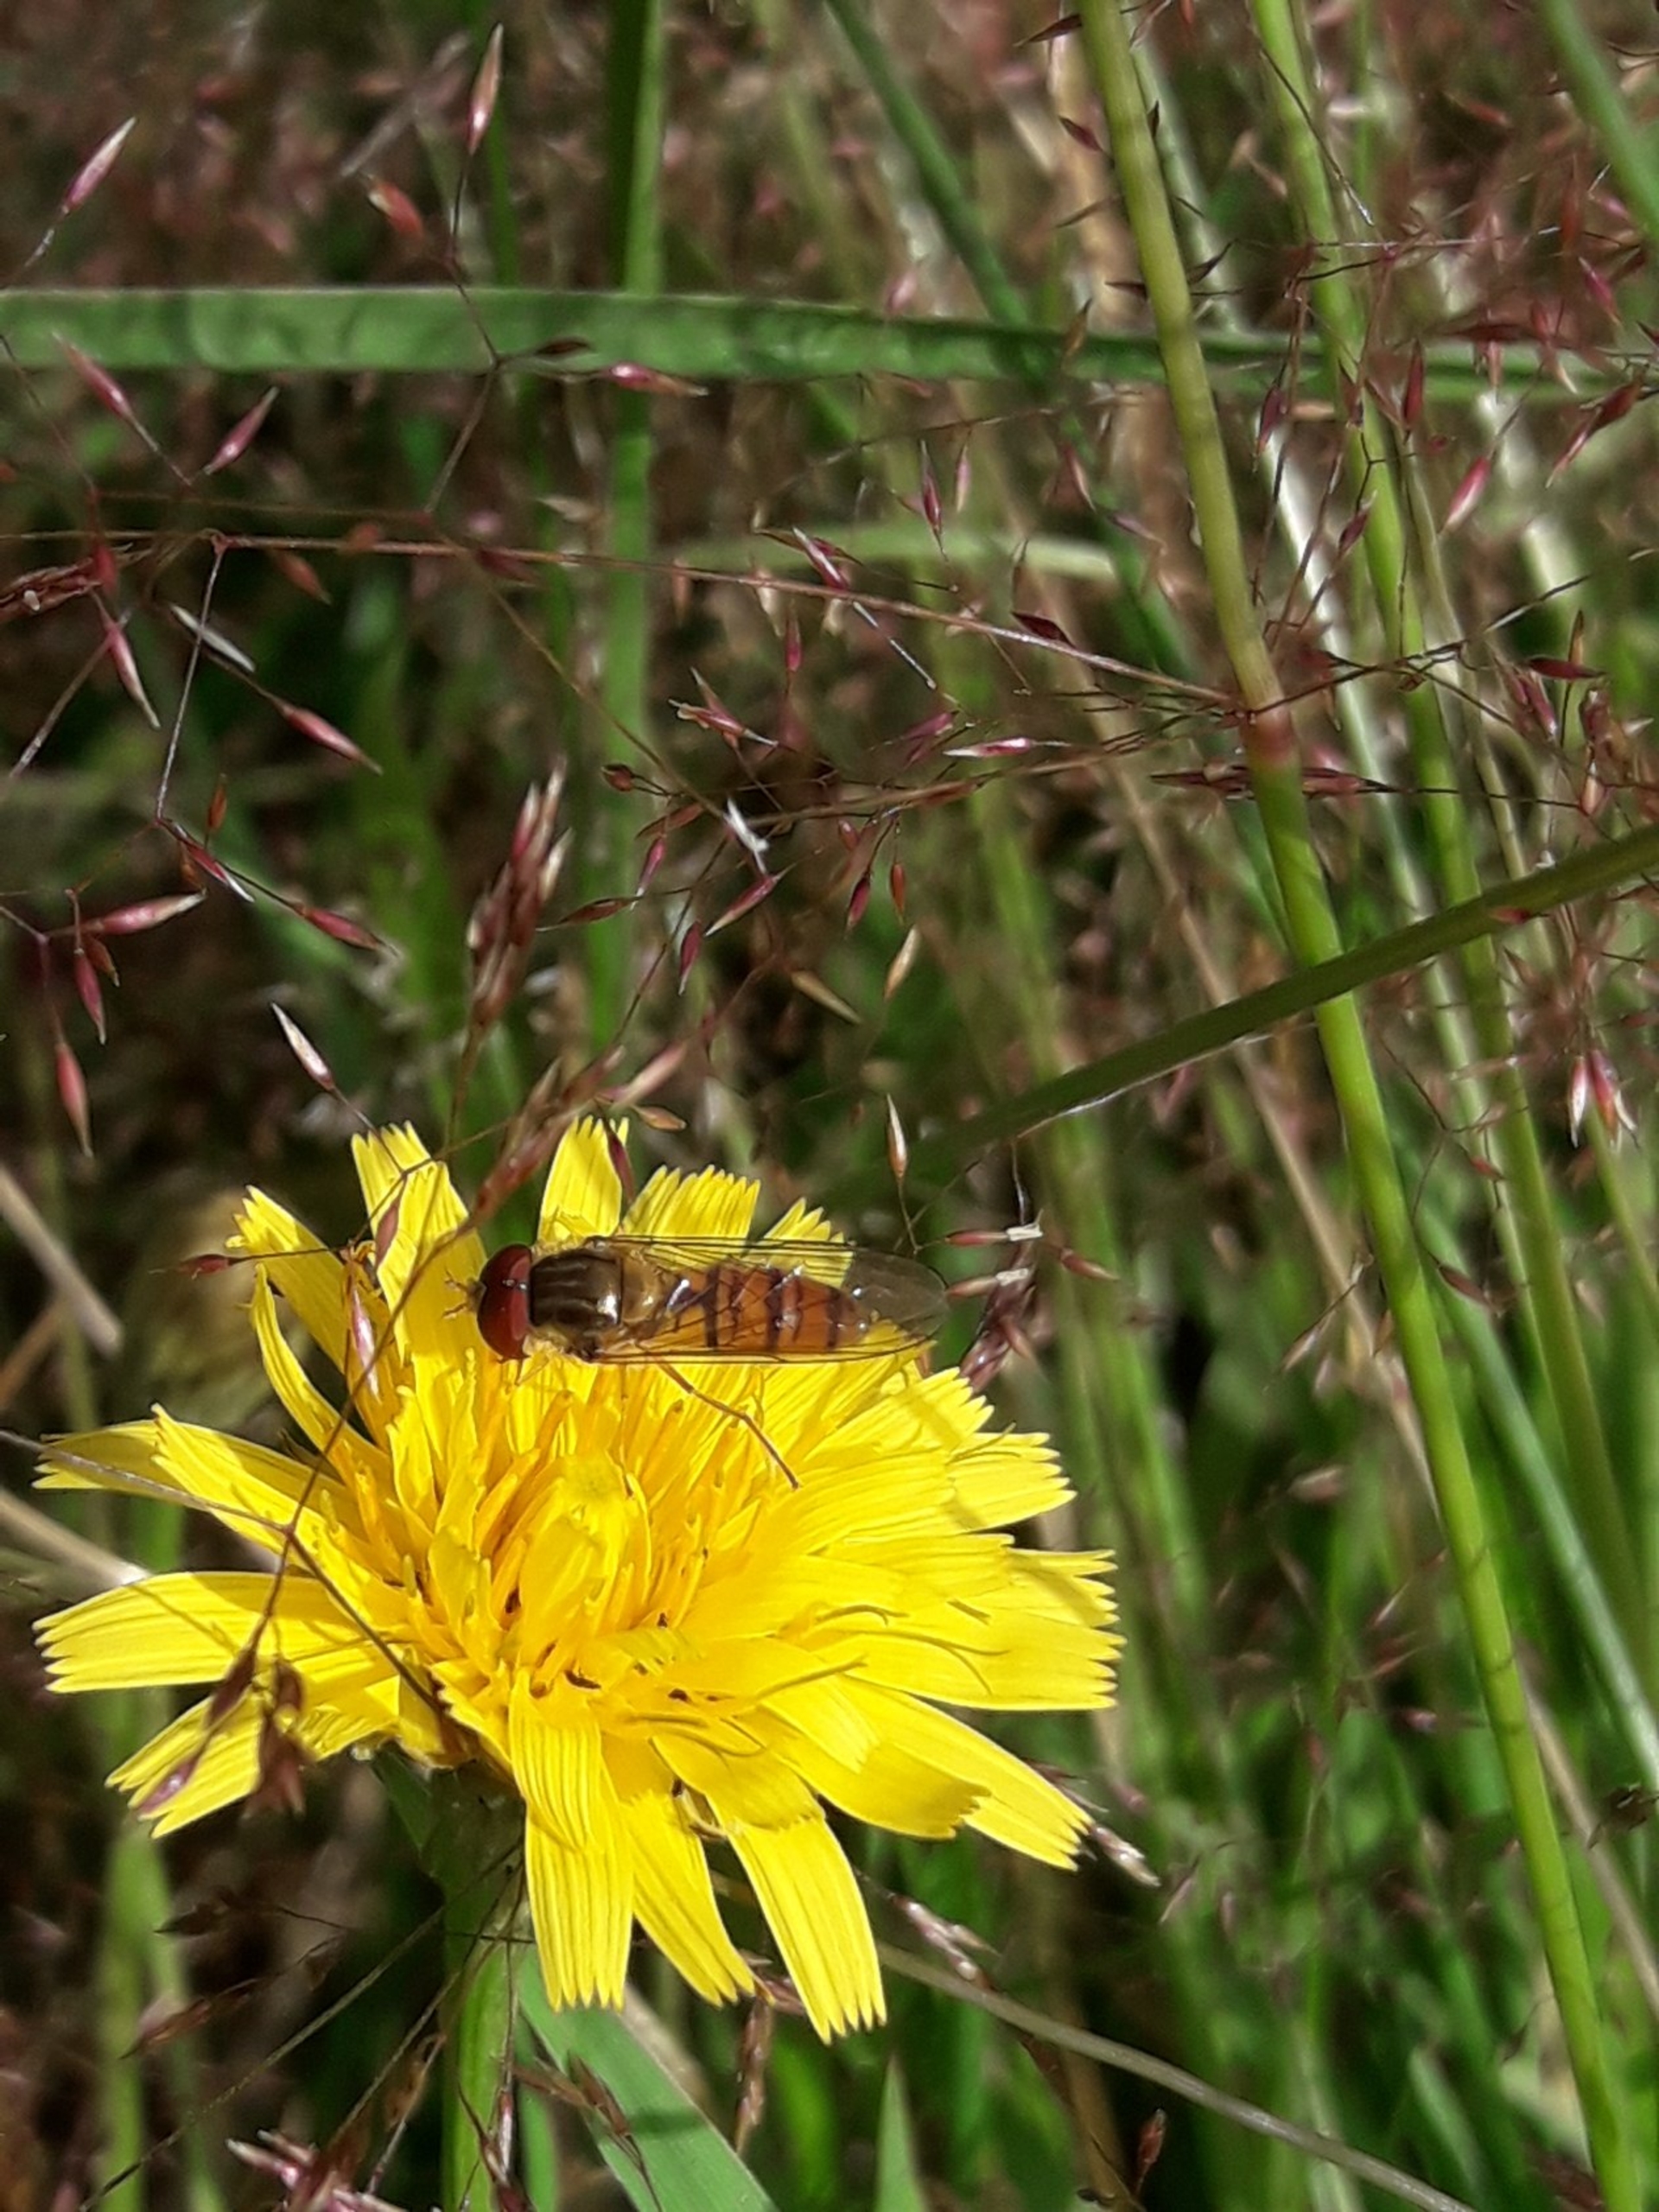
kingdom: Animalia
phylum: Arthropoda
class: Insecta
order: Diptera
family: Syrphidae
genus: Episyrphus
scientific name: Episyrphus balteatus
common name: Dobbeltbåndet svirreflue
